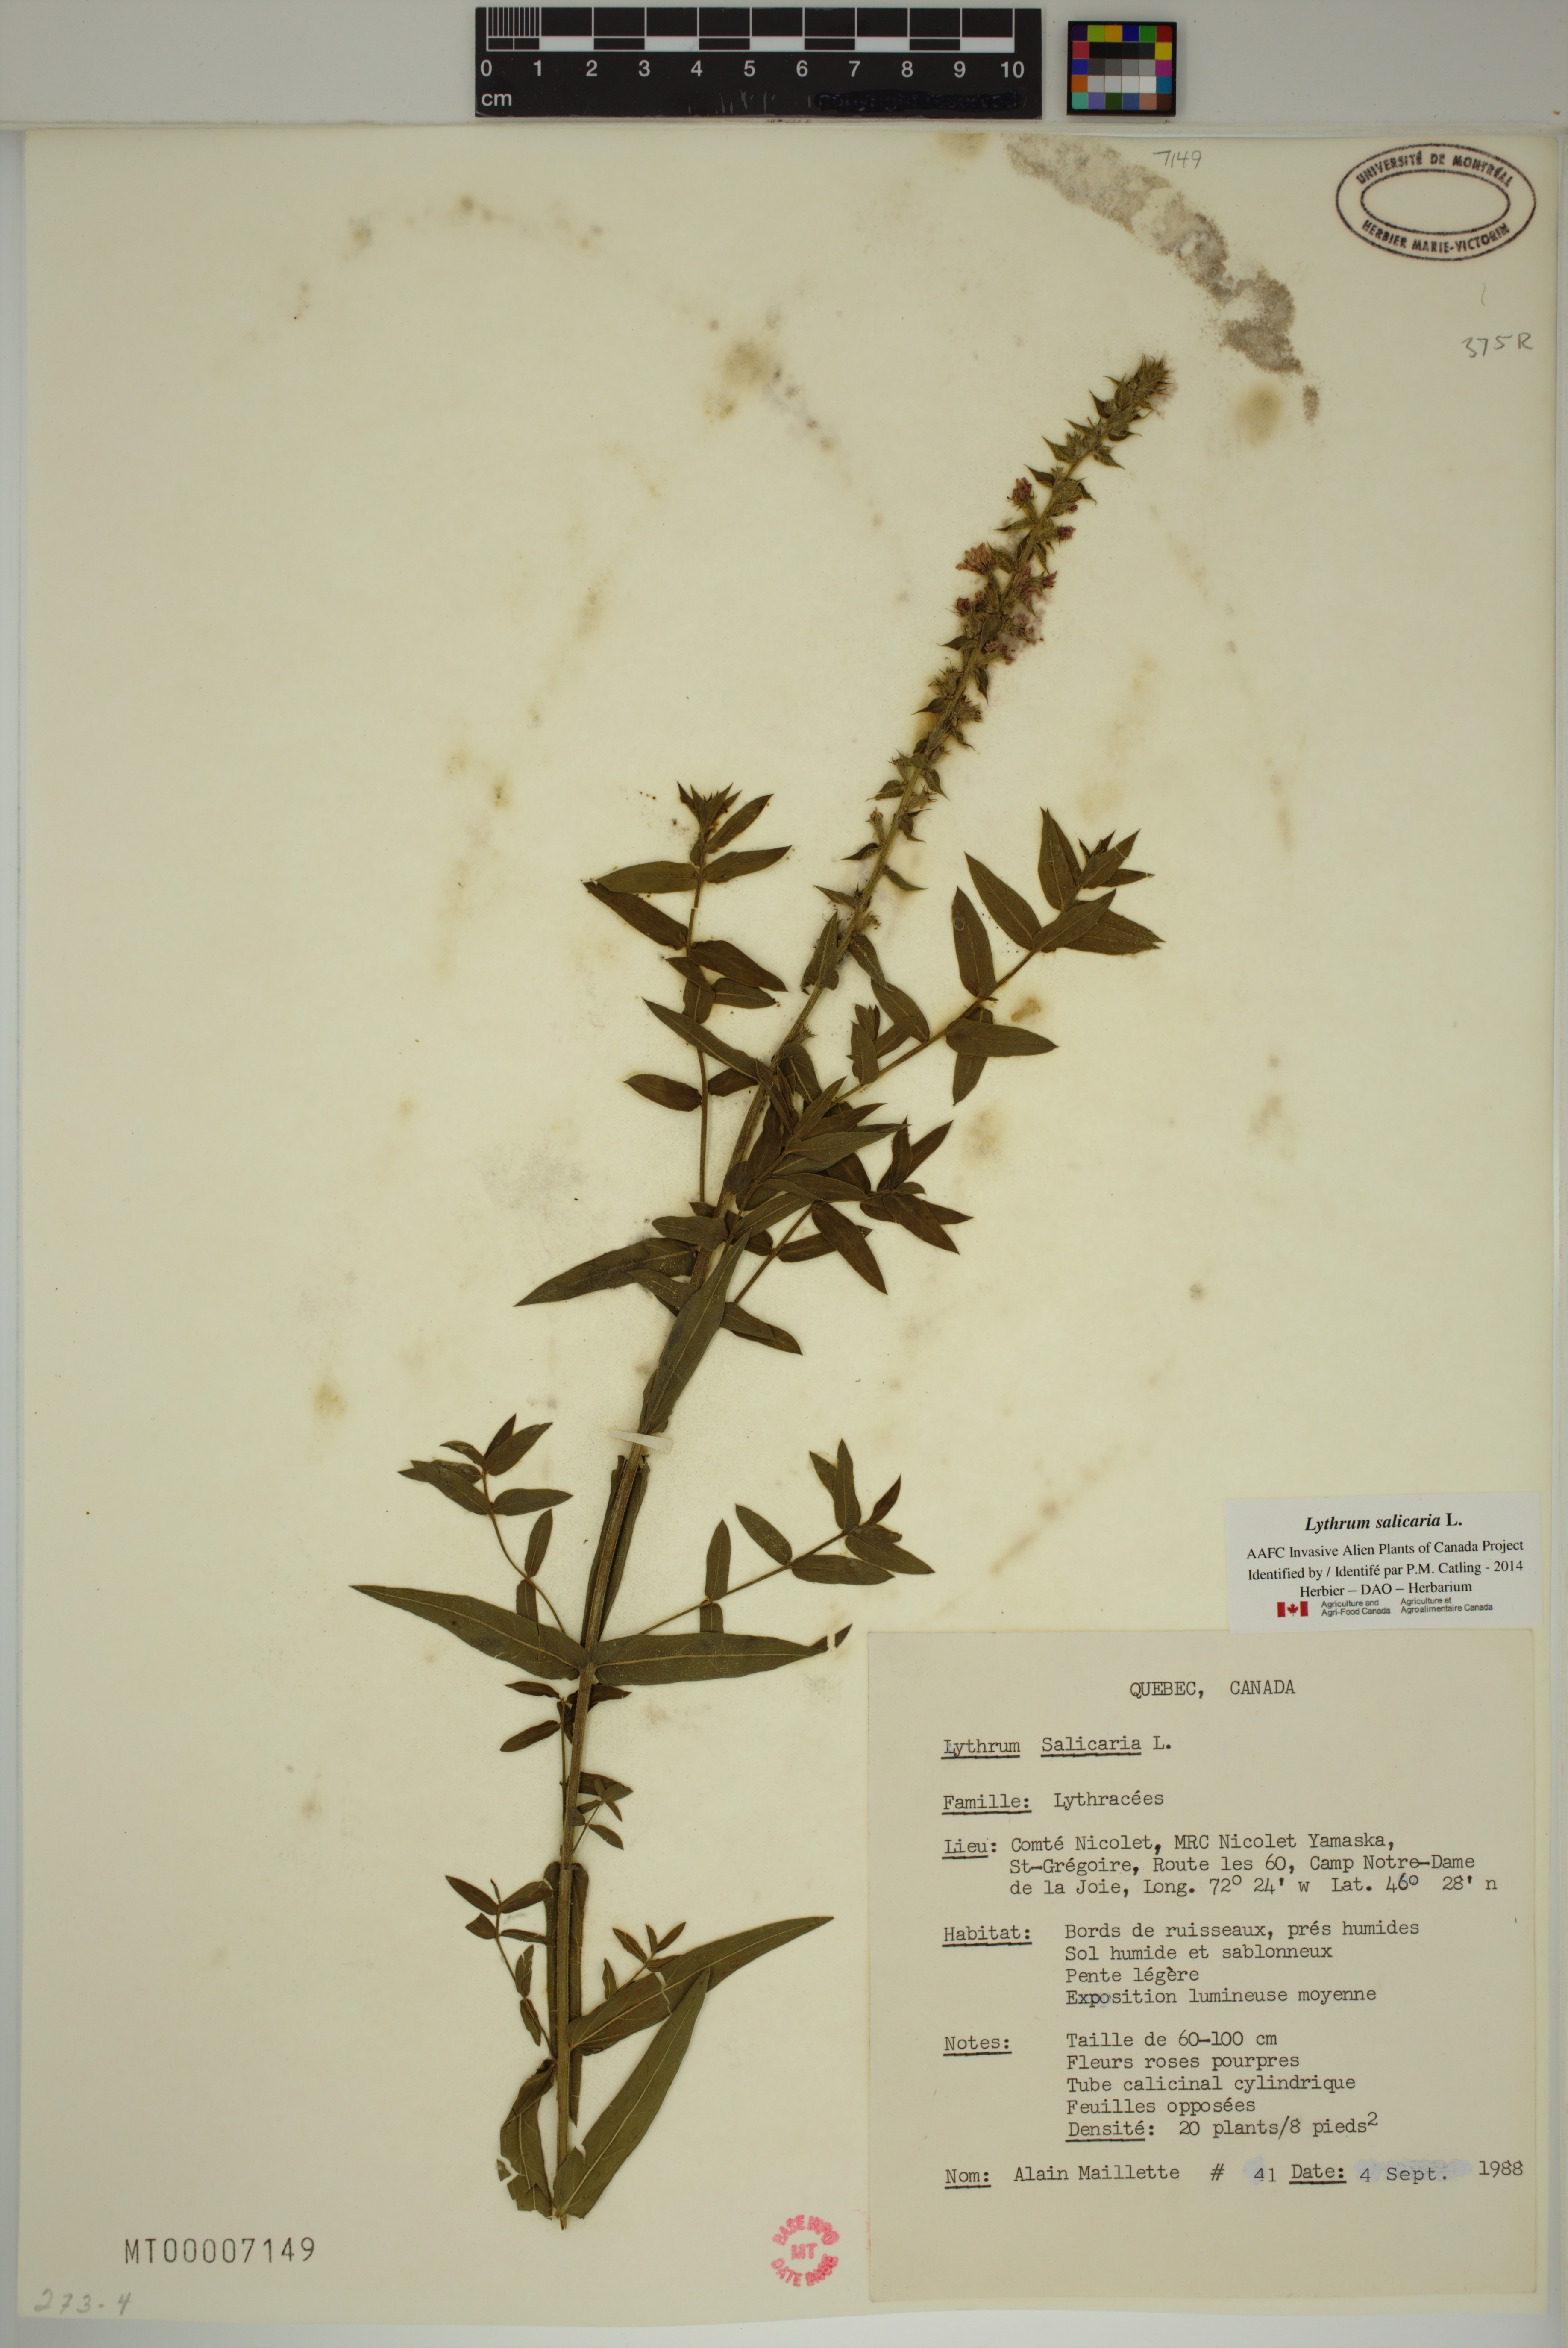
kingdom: Plantae
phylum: Tracheophyta
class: Magnoliopsida
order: Myrtales
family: Lythraceae
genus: Lythrum
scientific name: Lythrum salicaria
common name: Purple loosestrife
